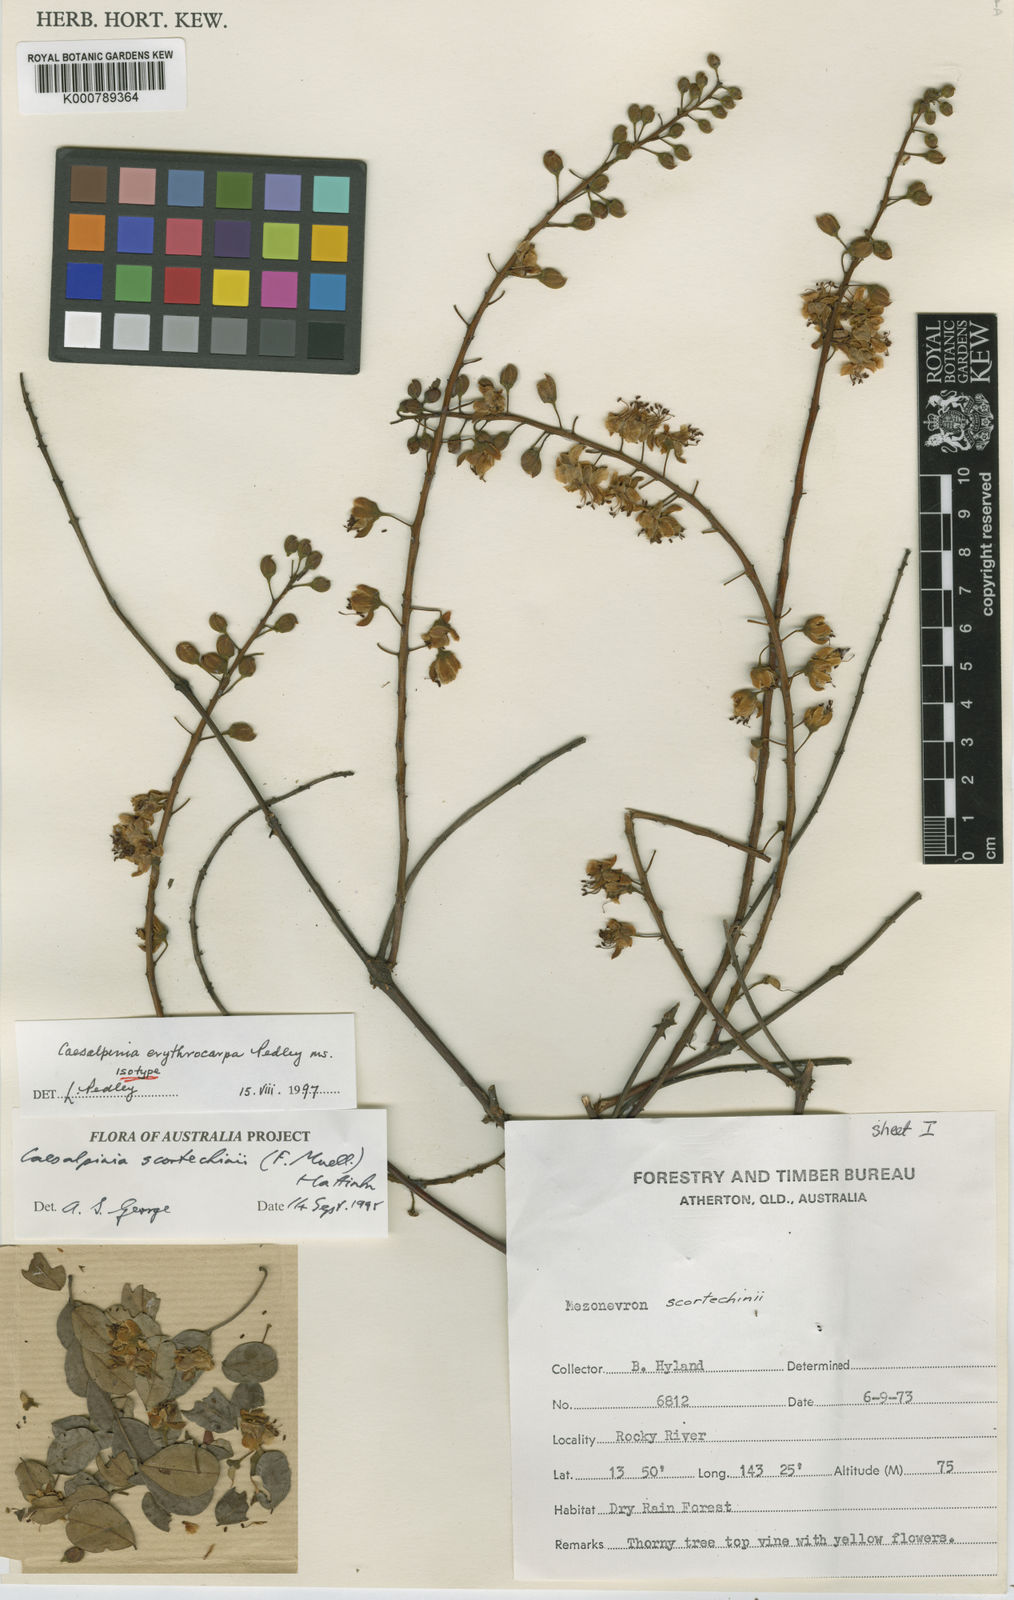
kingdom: Plantae
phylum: Tracheophyta
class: Magnoliopsida
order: Fabales
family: Fabaceae
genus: Mezoneuron
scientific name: Mezoneuron erythrocarpum
